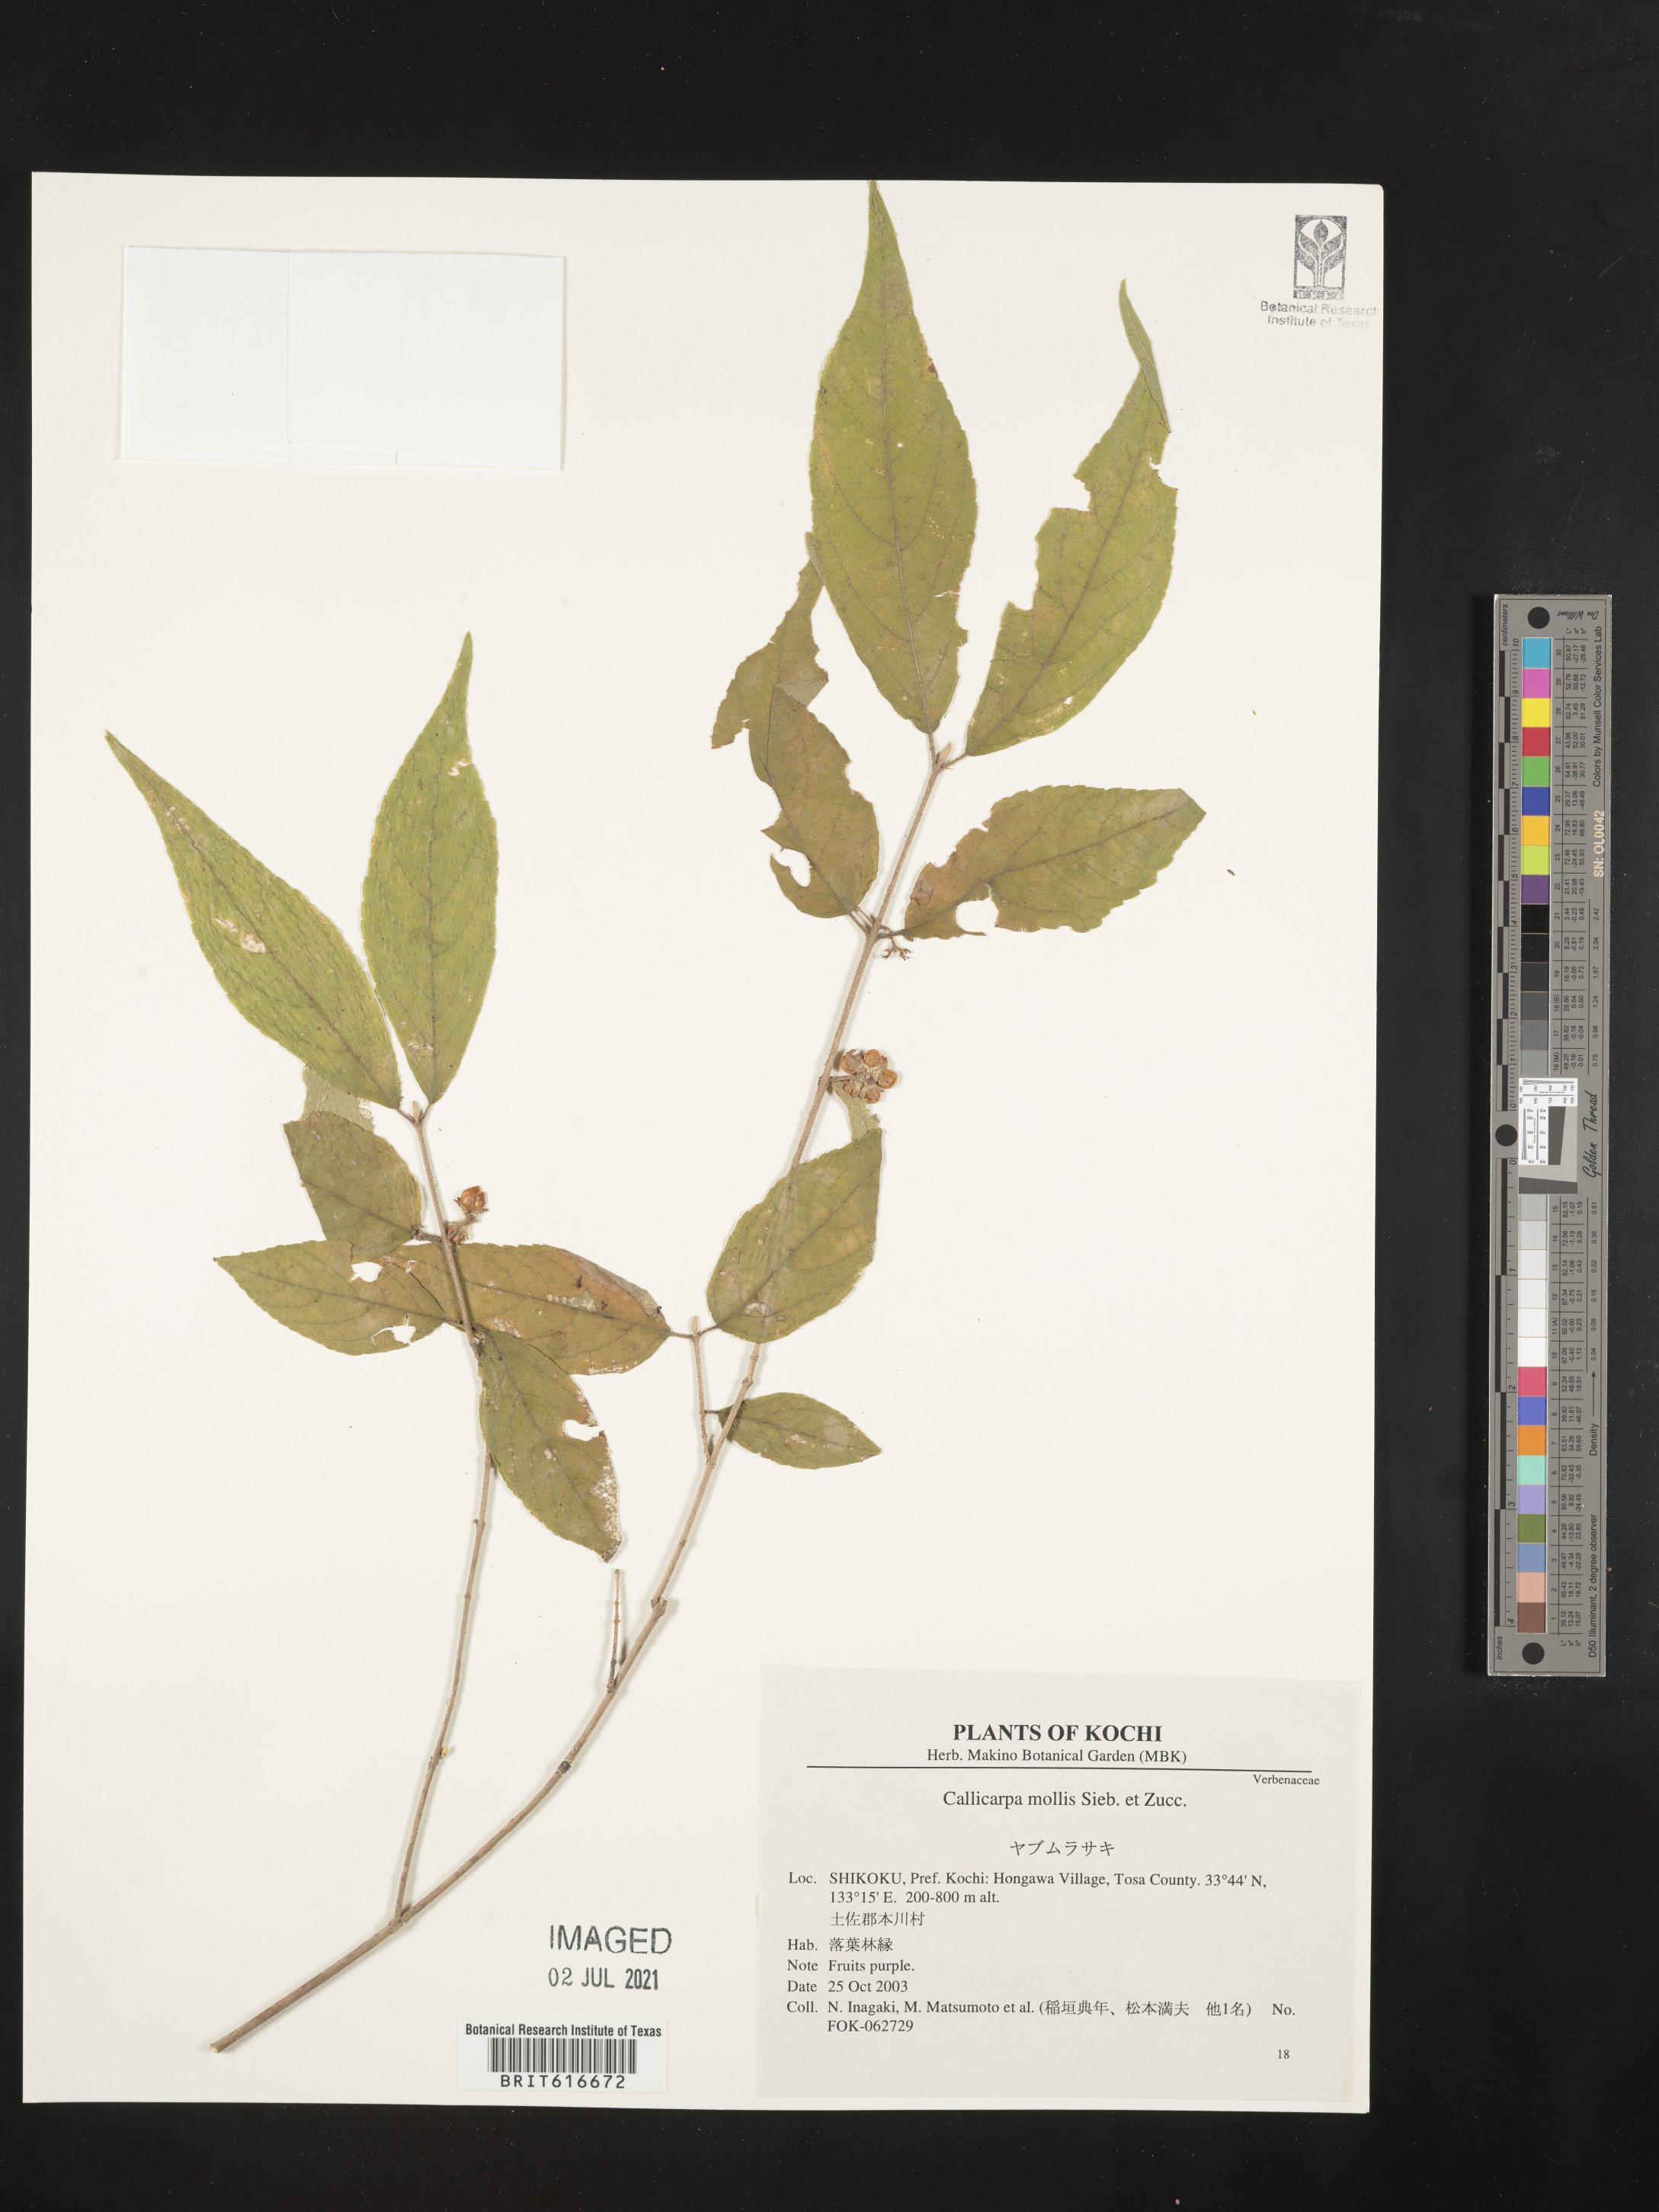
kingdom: Plantae
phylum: Tracheophyta
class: Magnoliopsida
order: Lamiales
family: Lamiaceae
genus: Callicarpa
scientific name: Callicarpa mollis
